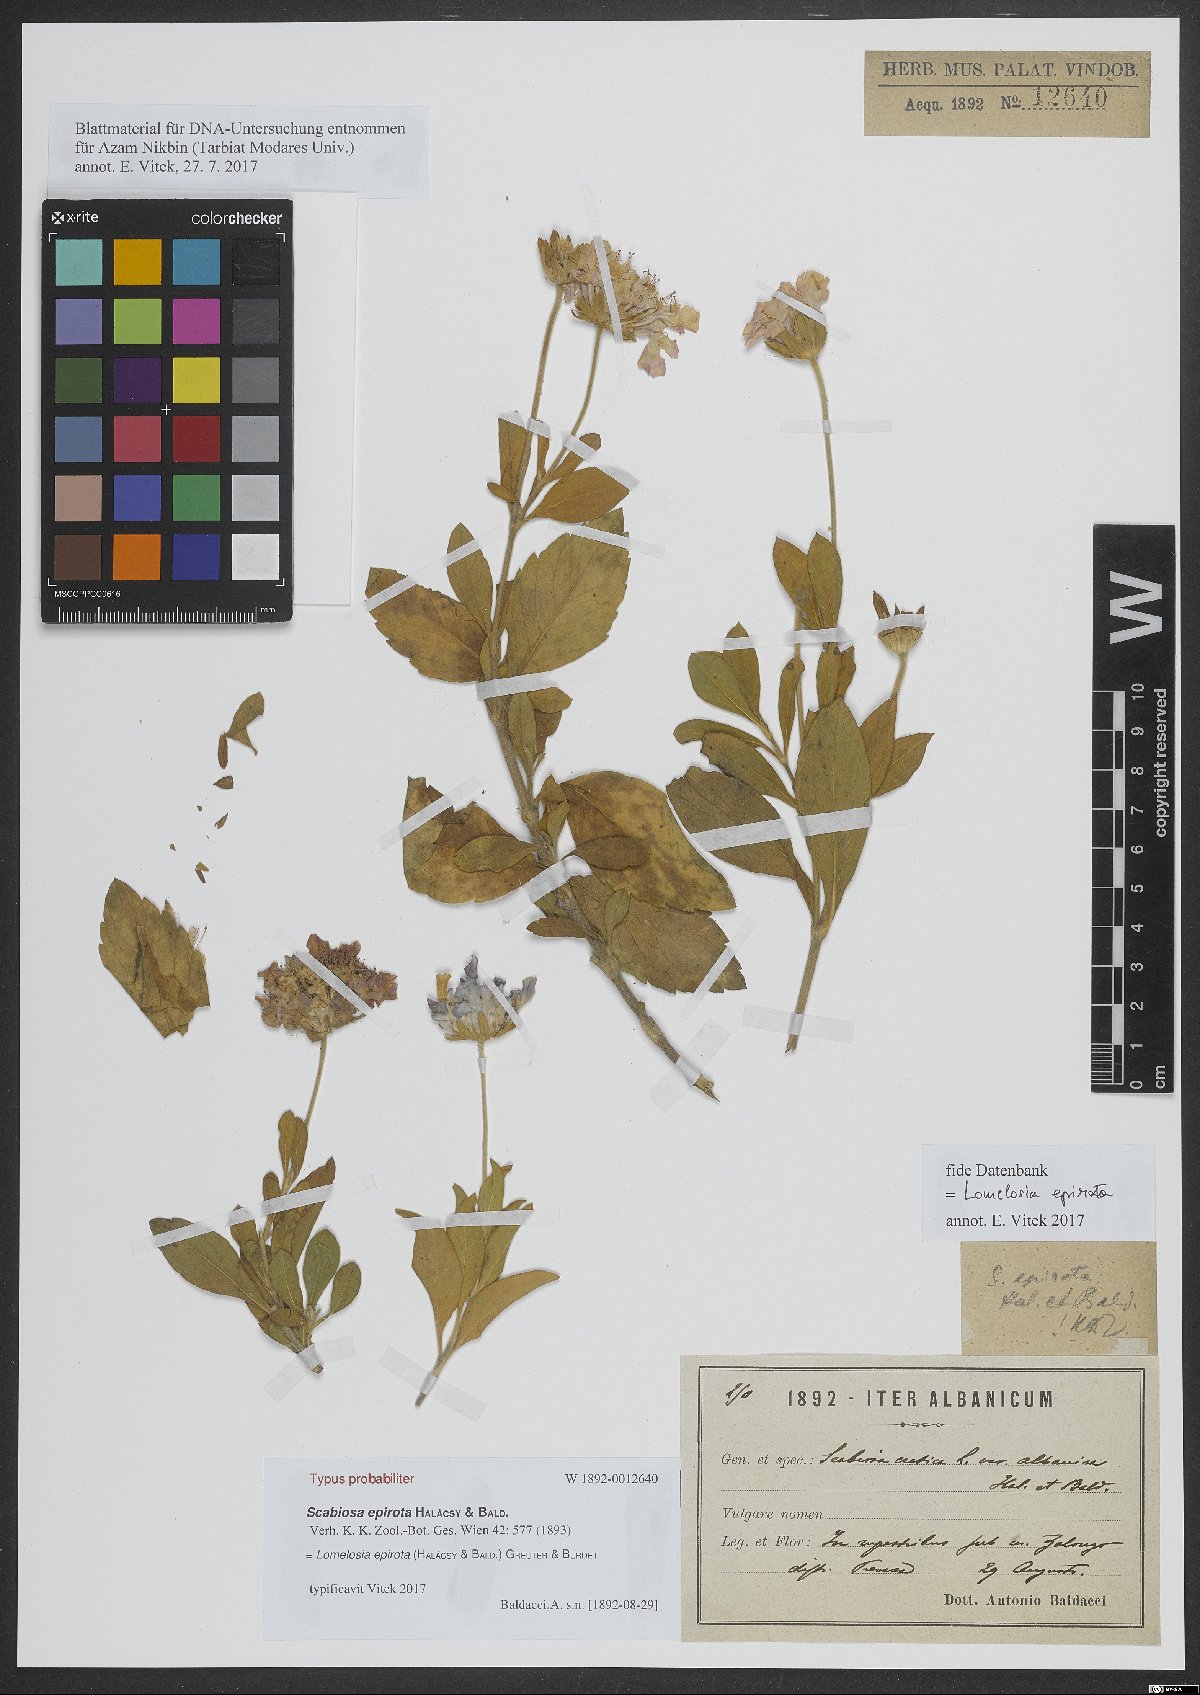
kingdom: Plantae
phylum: Tracheophyta
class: Magnoliopsida
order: Dipsacales
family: Caprifoliaceae
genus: Lomelosia
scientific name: Lomelosia epirota
